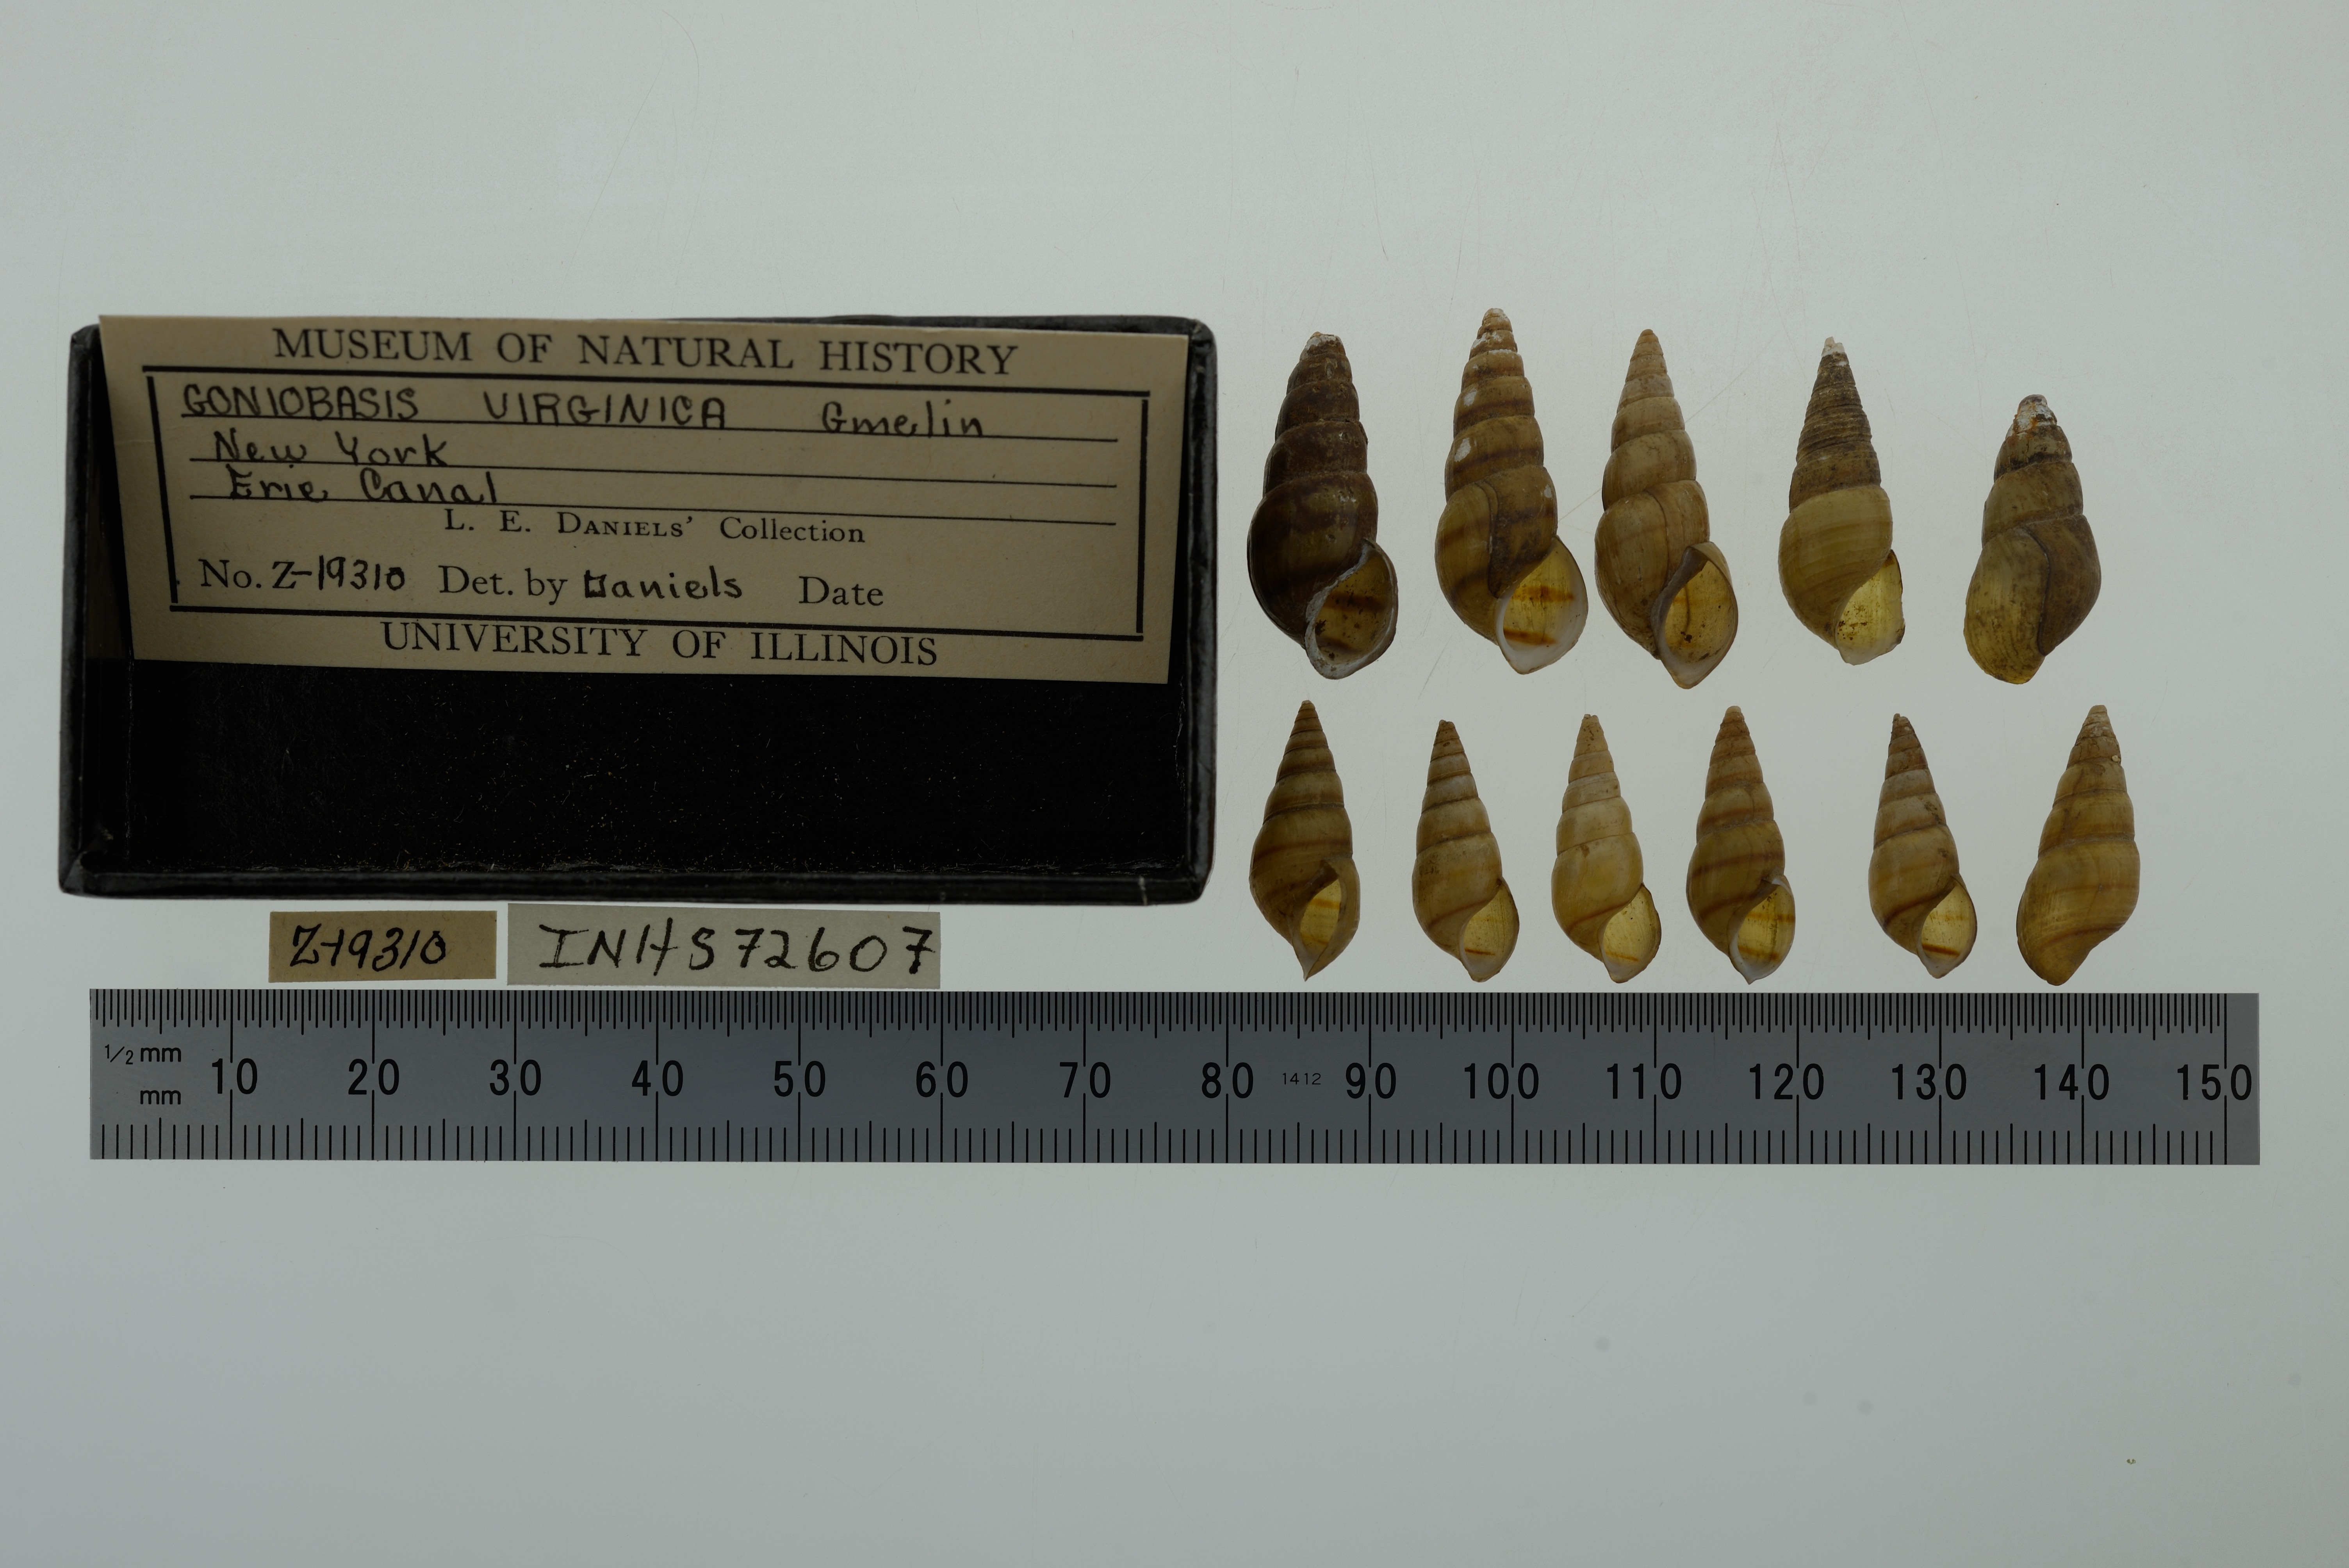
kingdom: Animalia
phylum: Mollusca
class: Gastropoda
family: Pleuroceridae
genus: Elimia
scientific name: Elimia virginica
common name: Piedmont elimia
